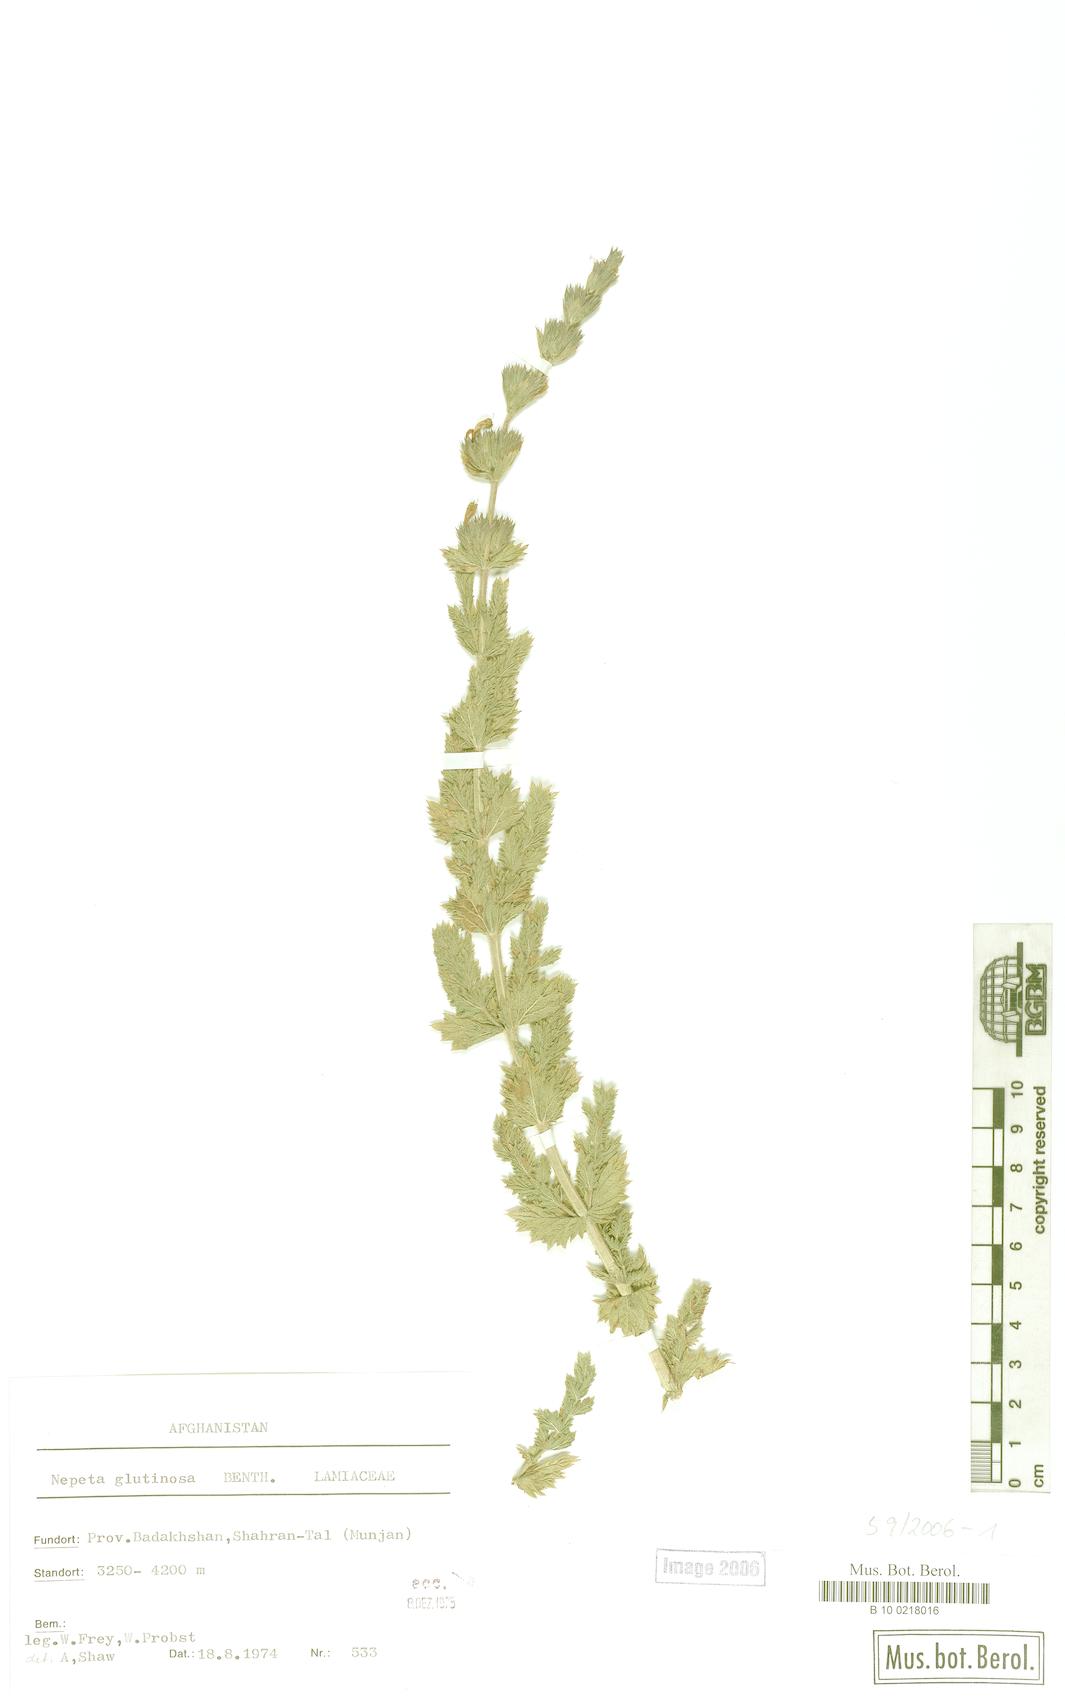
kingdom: Plantae
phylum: Tracheophyta
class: Magnoliopsida
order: Lamiales
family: Lamiaceae
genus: Nepeta
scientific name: Nepeta glutinosa
